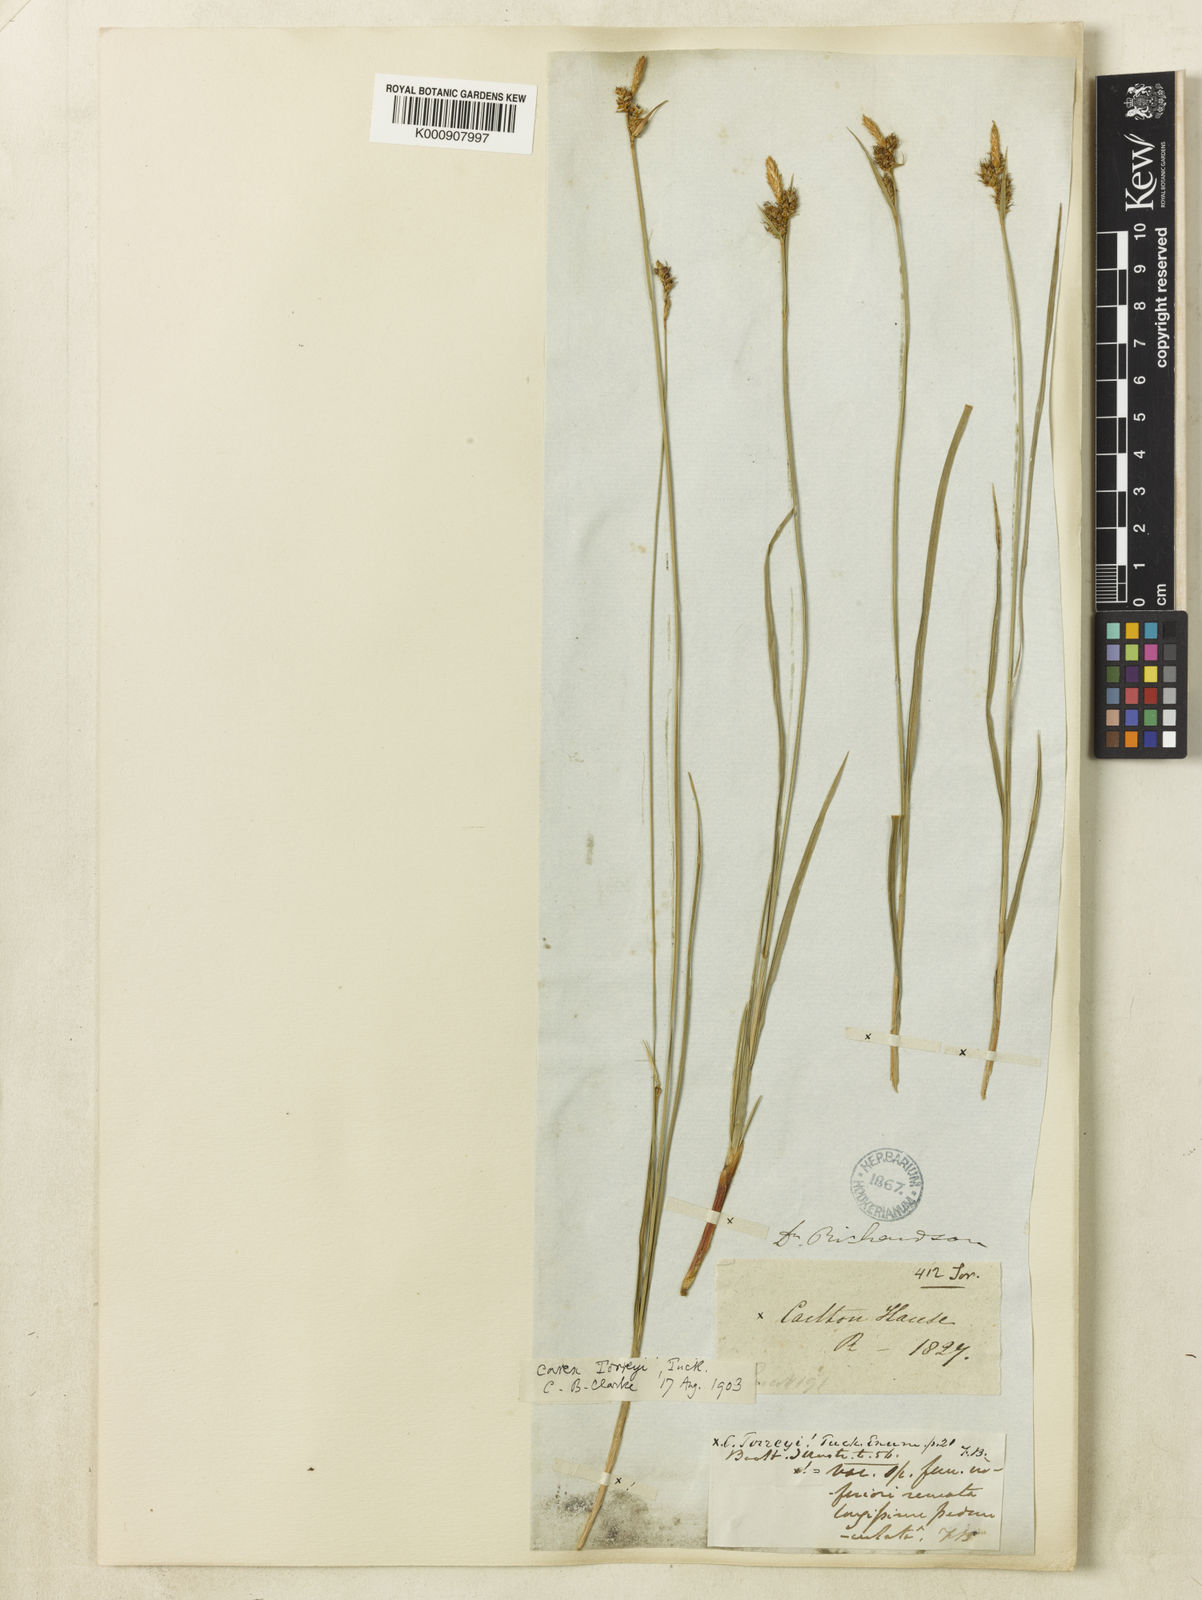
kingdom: Plantae
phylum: Tracheophyta
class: Liliopsida
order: Poales
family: Cyperaceae
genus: Carex
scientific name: Carex torreyi
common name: Torrey's sedge
